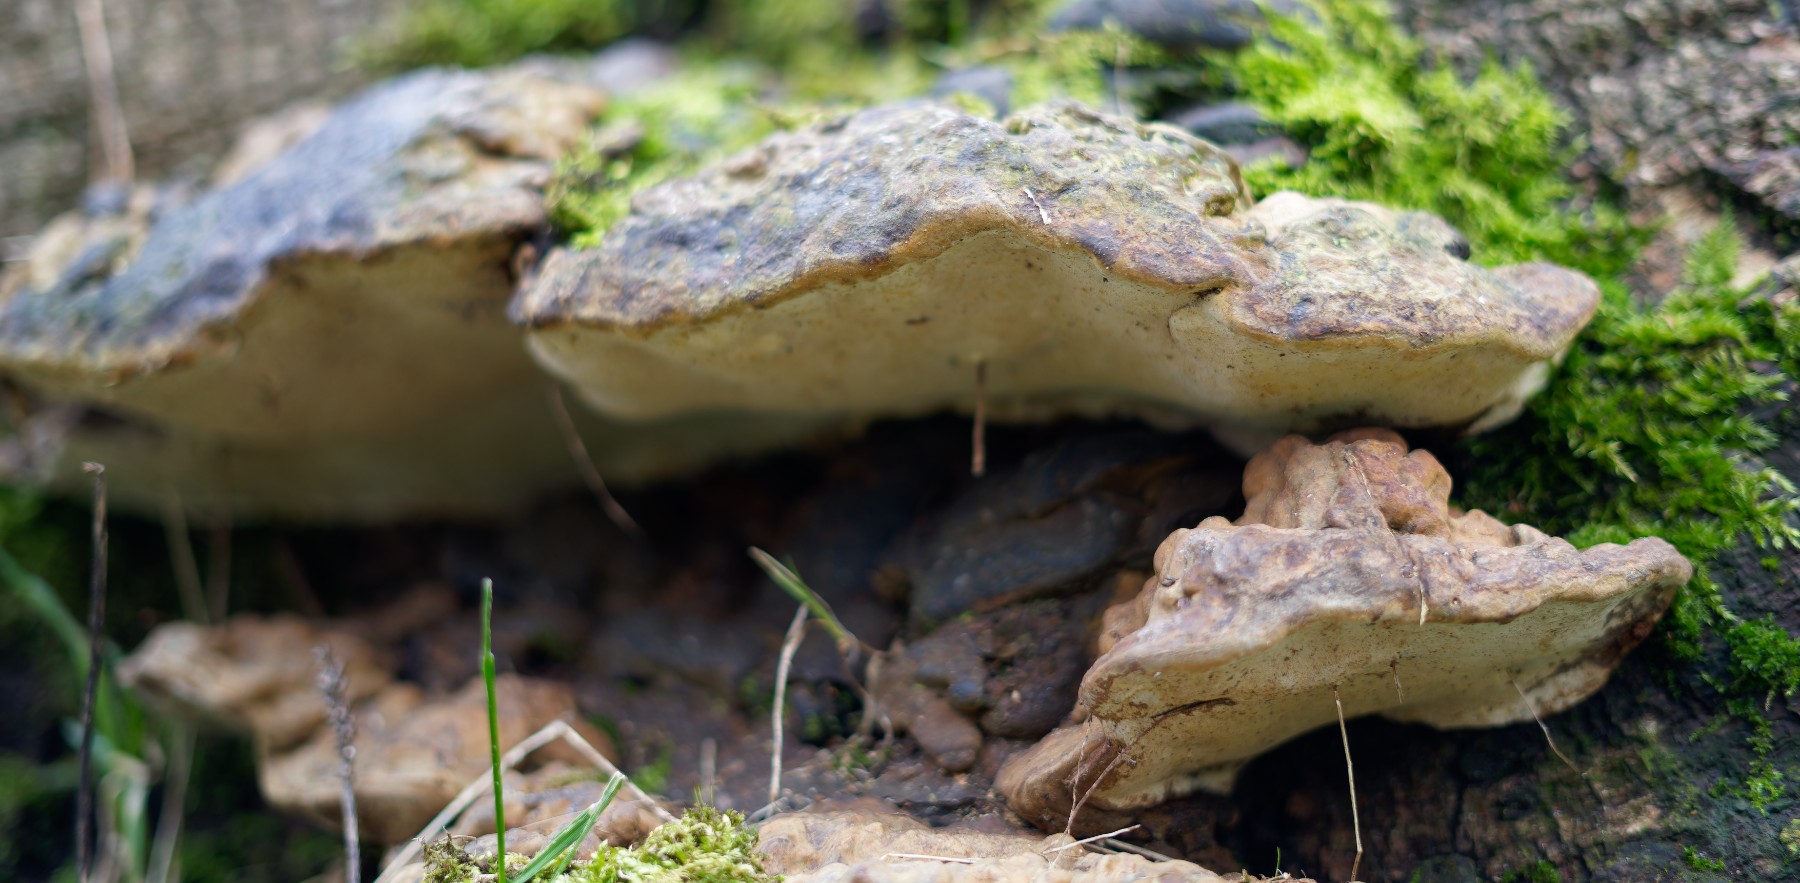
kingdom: Fungi
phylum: Basidiomycota
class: Agaricomycetes
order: Polyporales
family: Polyporaceae
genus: Ganoderma
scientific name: Ganoderma applanatum
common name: flad lakporesvamp
